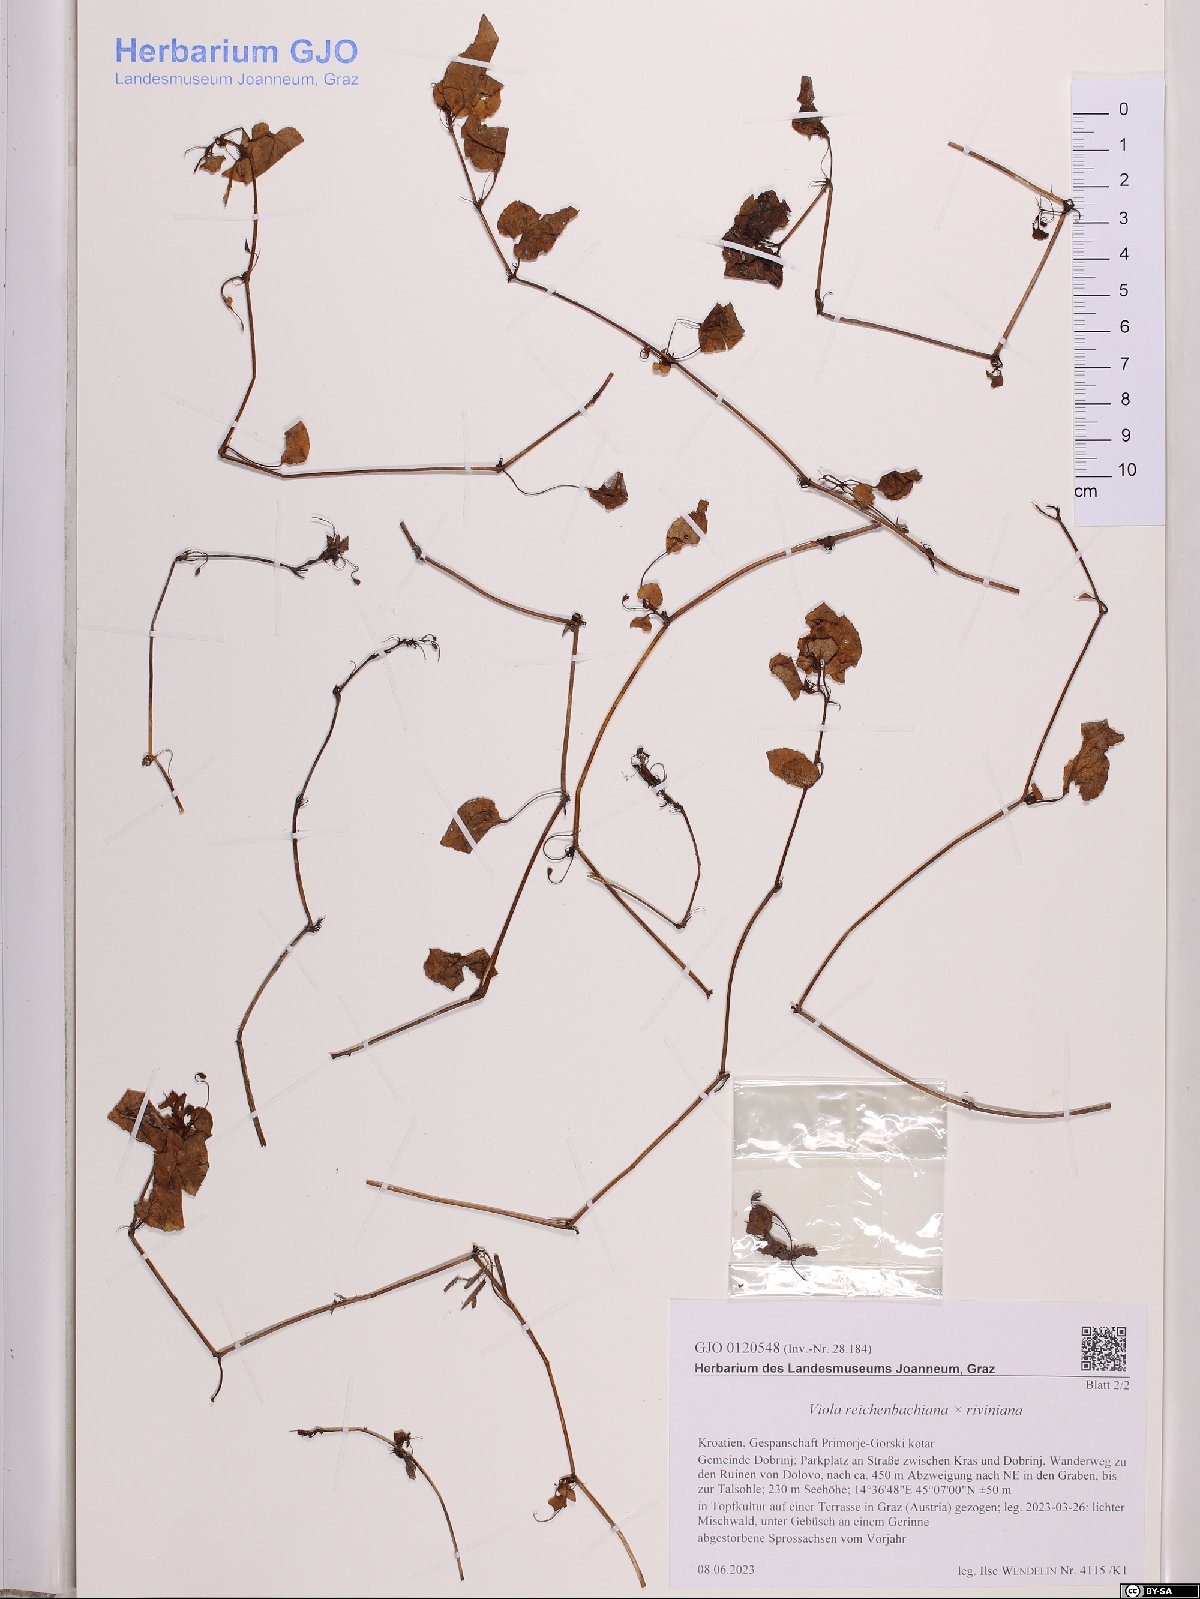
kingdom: Plantae
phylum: Tracheophyta
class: Magnoliopsida
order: Malpighiales
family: Violaceae
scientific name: Violaceae
